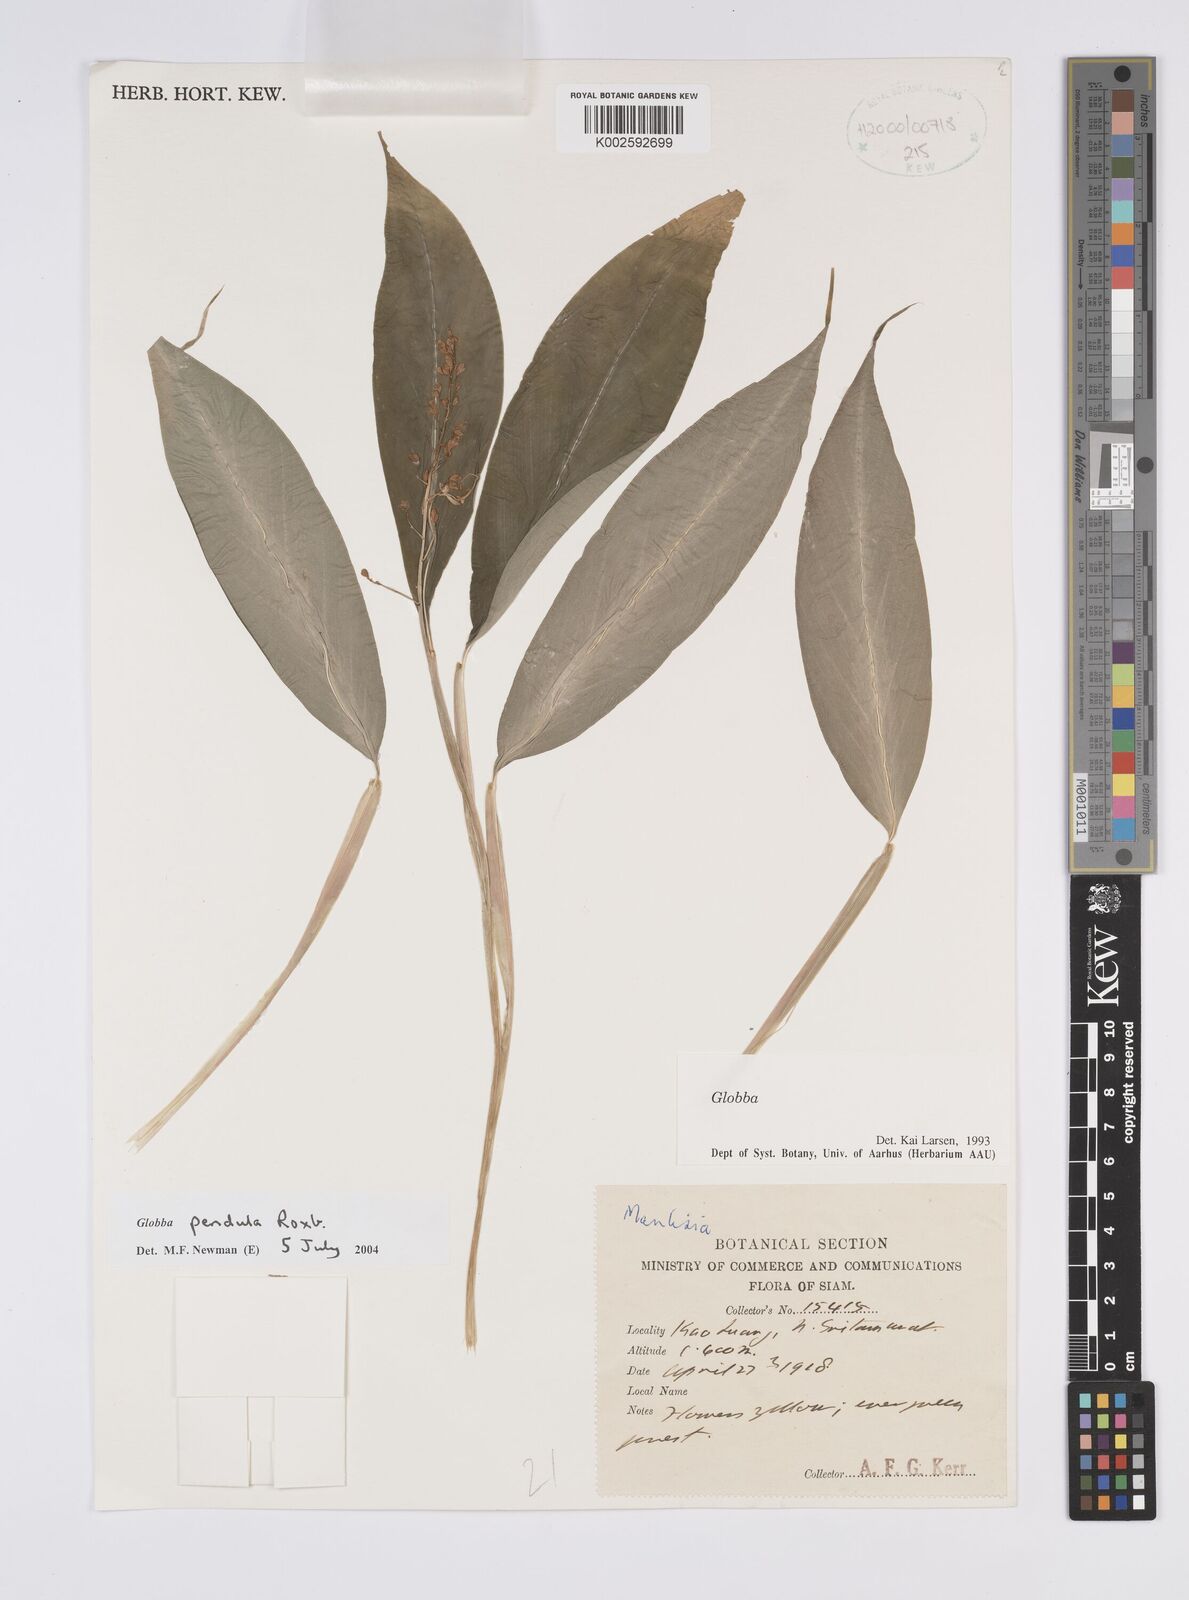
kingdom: Plantae
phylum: Tracheophyta
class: Liliopsida
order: Zingiberales
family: Zingiberaceae
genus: Globba
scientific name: Globba pendula
